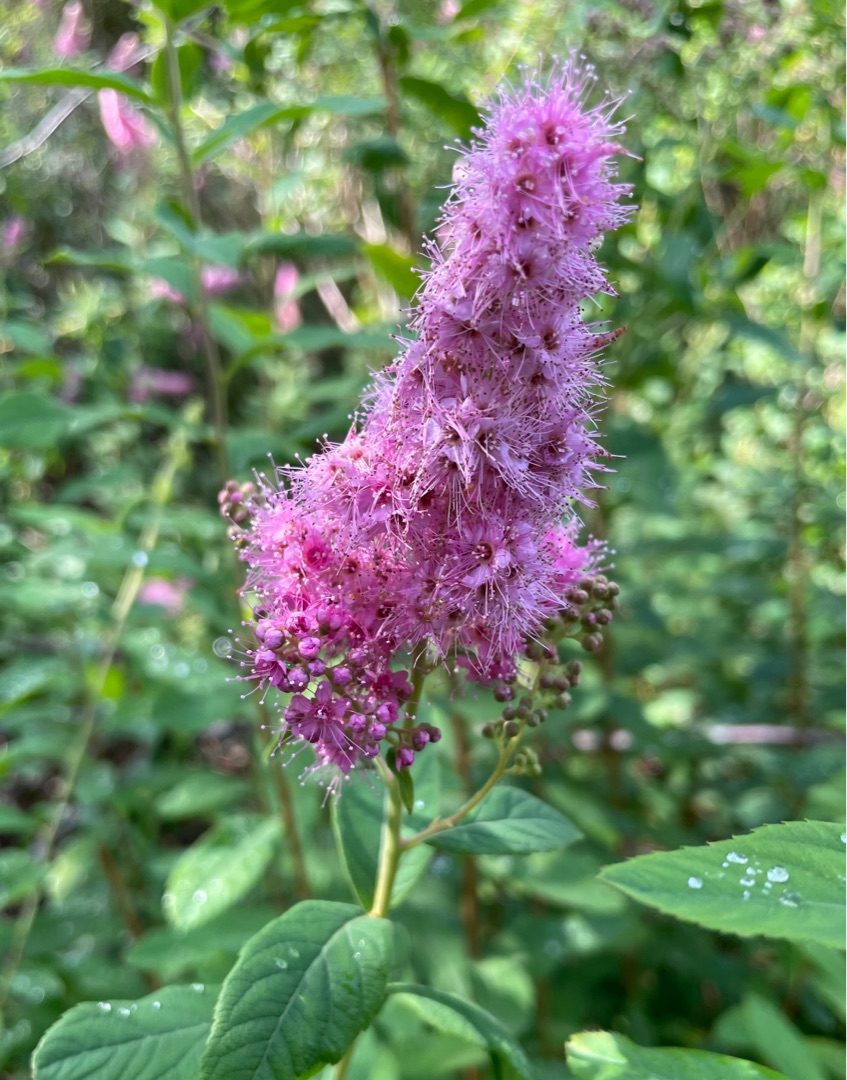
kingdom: Plantae
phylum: Tracheophyta
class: Magnoliopsida
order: Rosales
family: Rosaceae
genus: Spiraea
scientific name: Spiraea
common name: Spiræaslægten
